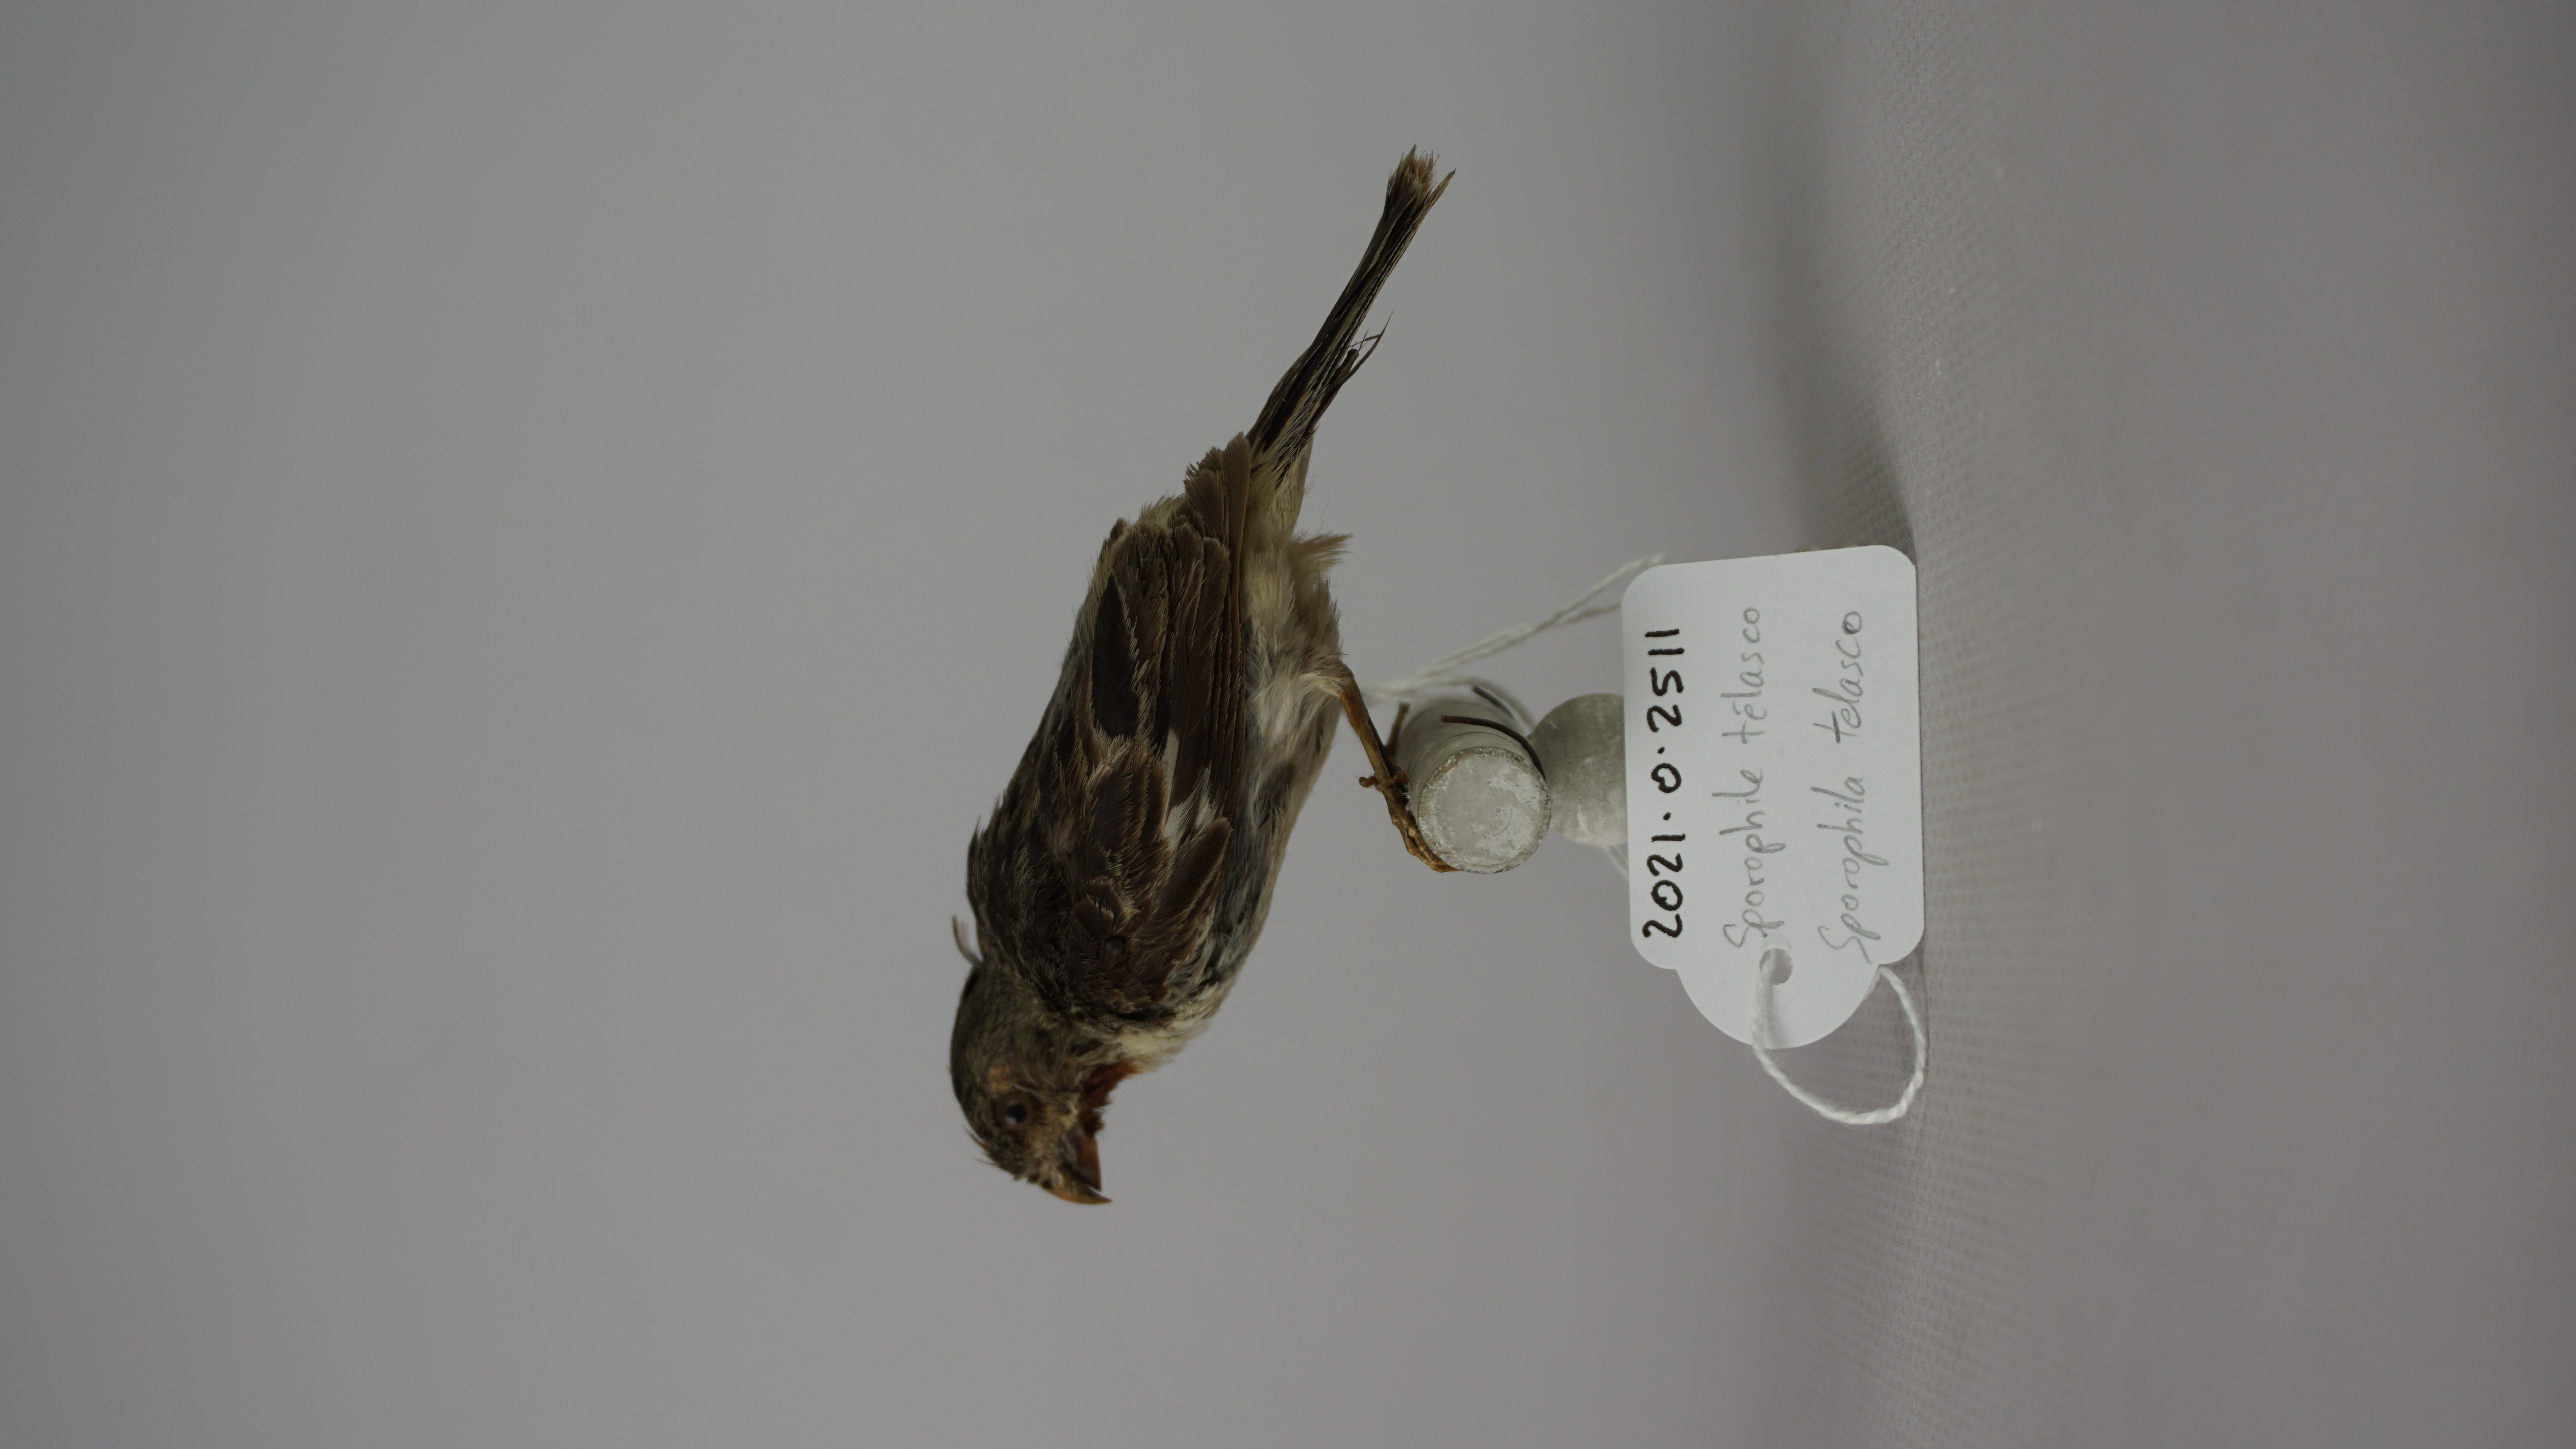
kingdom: Animalia
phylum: Chordata
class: Aves
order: Passeriformes
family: Thraupidae
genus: Sporophila
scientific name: Sporophila telasco
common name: Chestnut-throated seedeater
